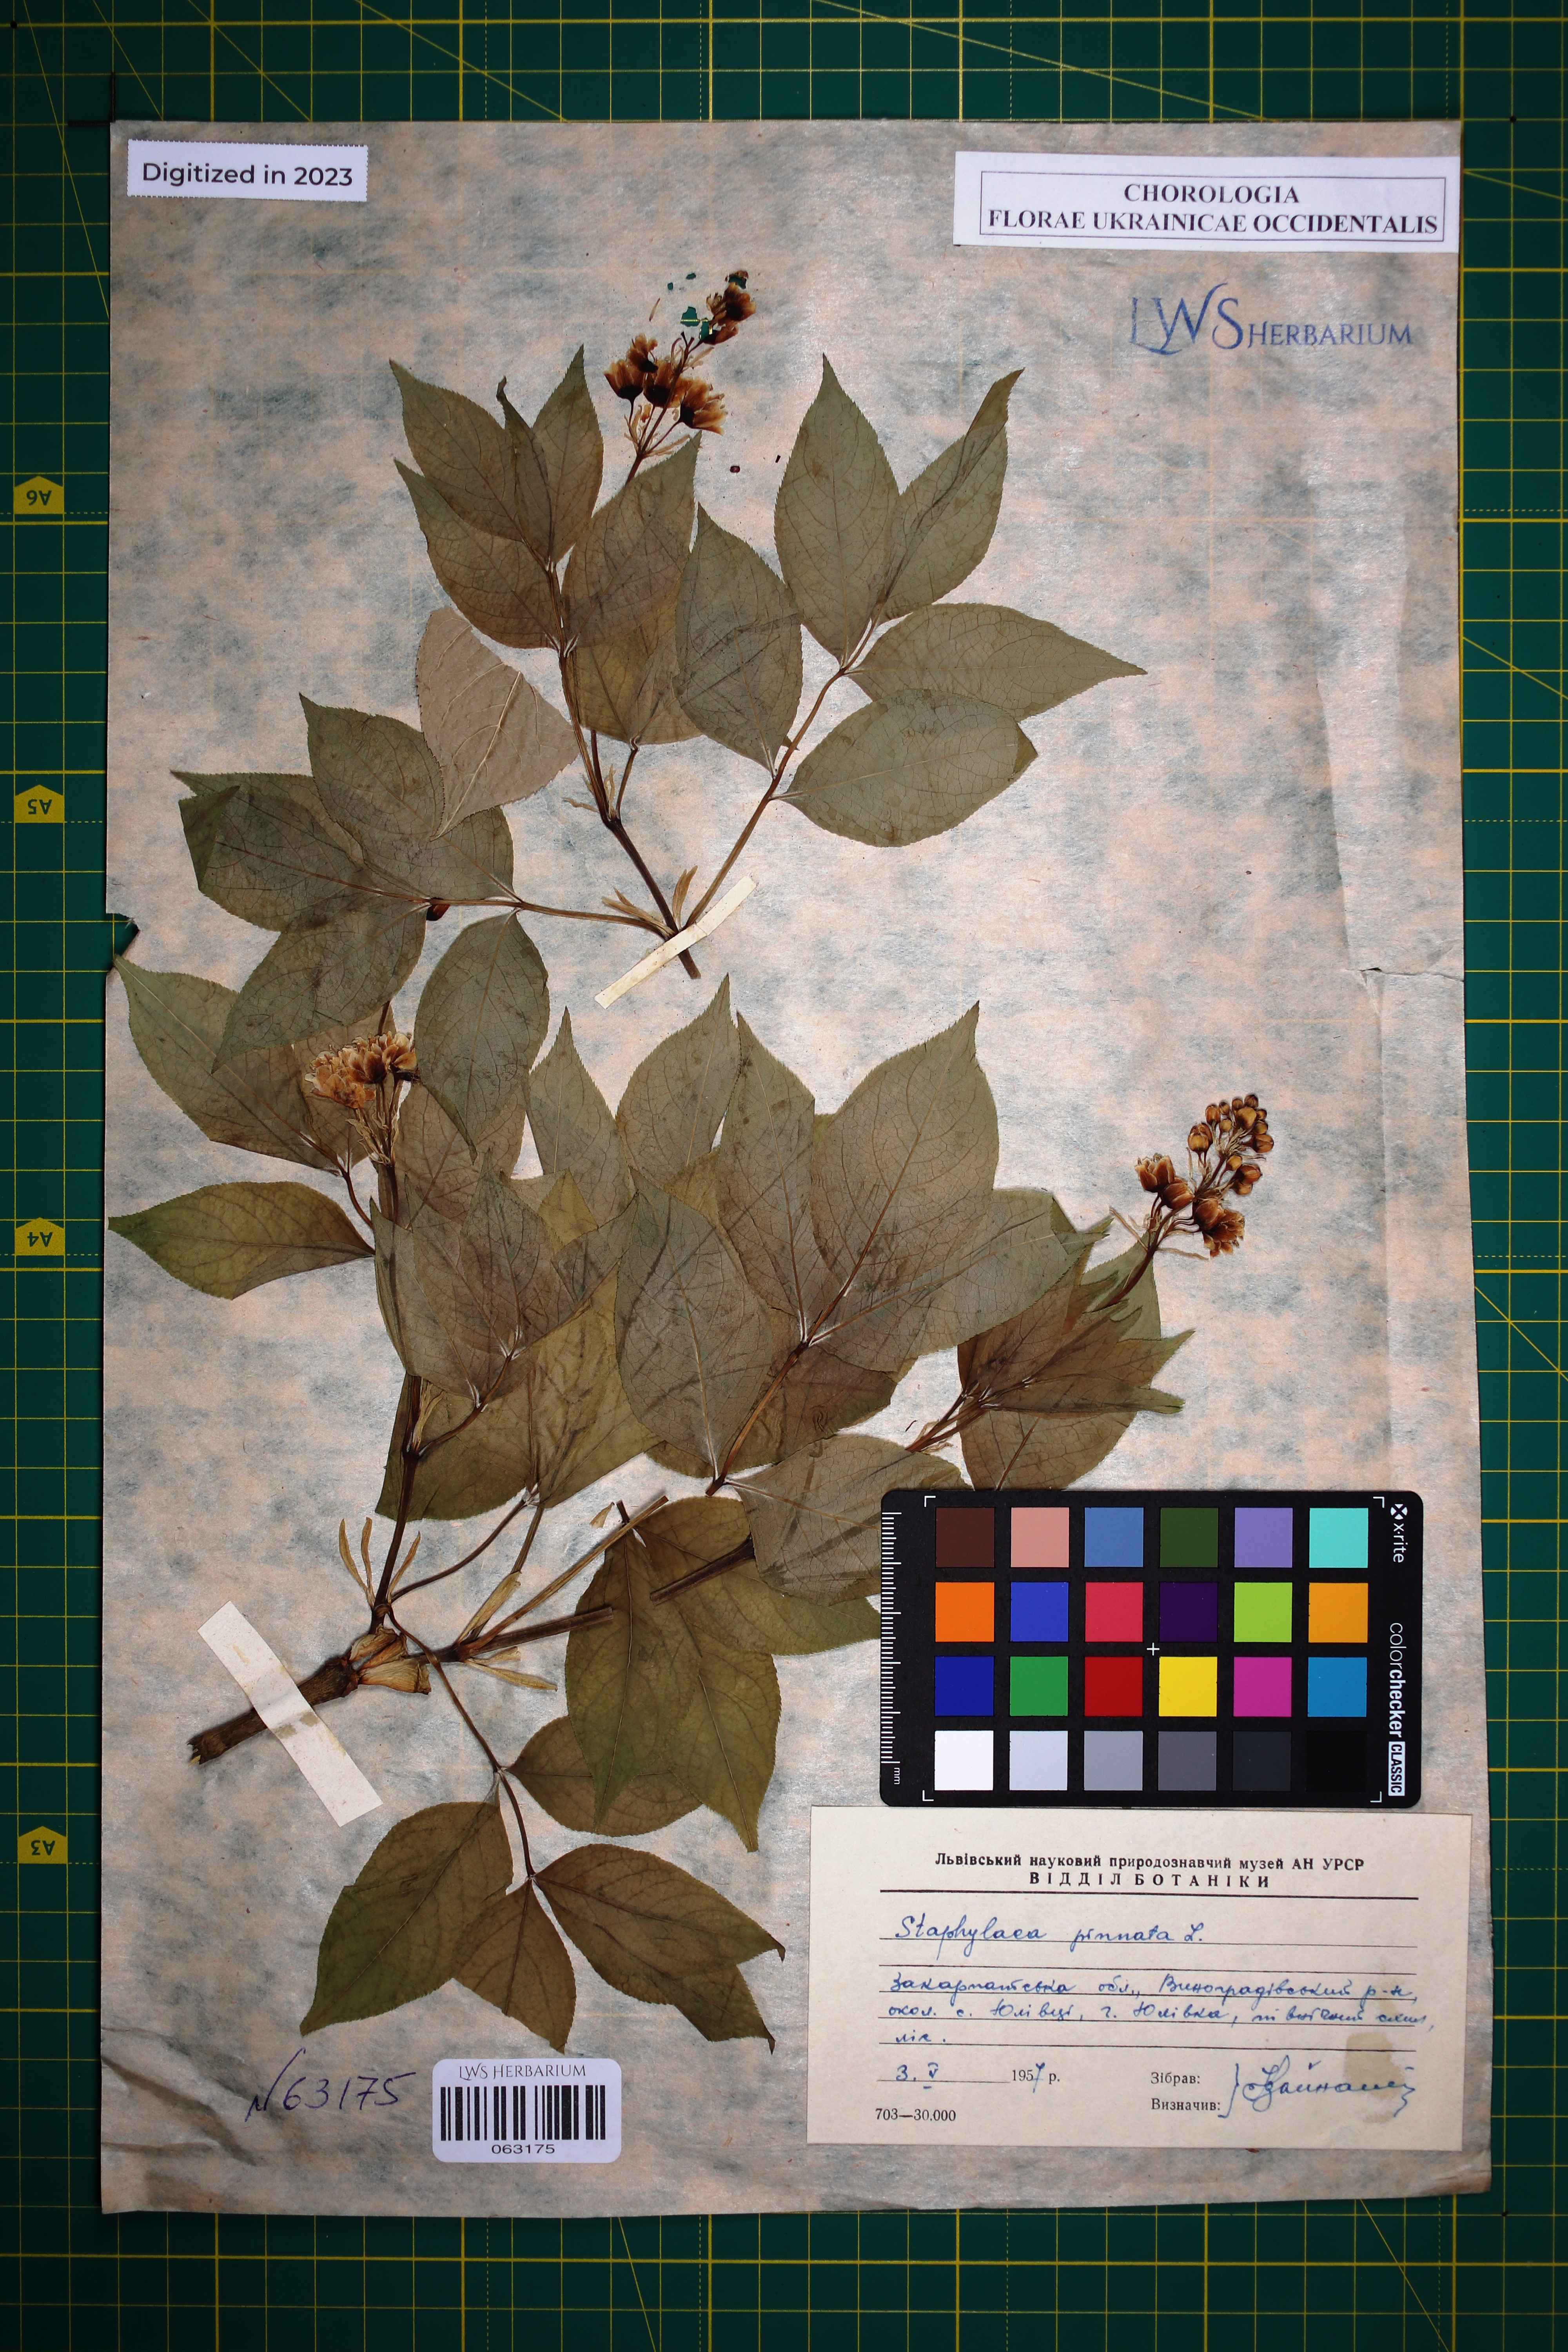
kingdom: Plantae
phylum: Tracheophyta
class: Magnoliopsida
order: Crossosomatales
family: Staphyleaceae
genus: Staphylea
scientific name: Staphylea pinnata
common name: Bladdernut
